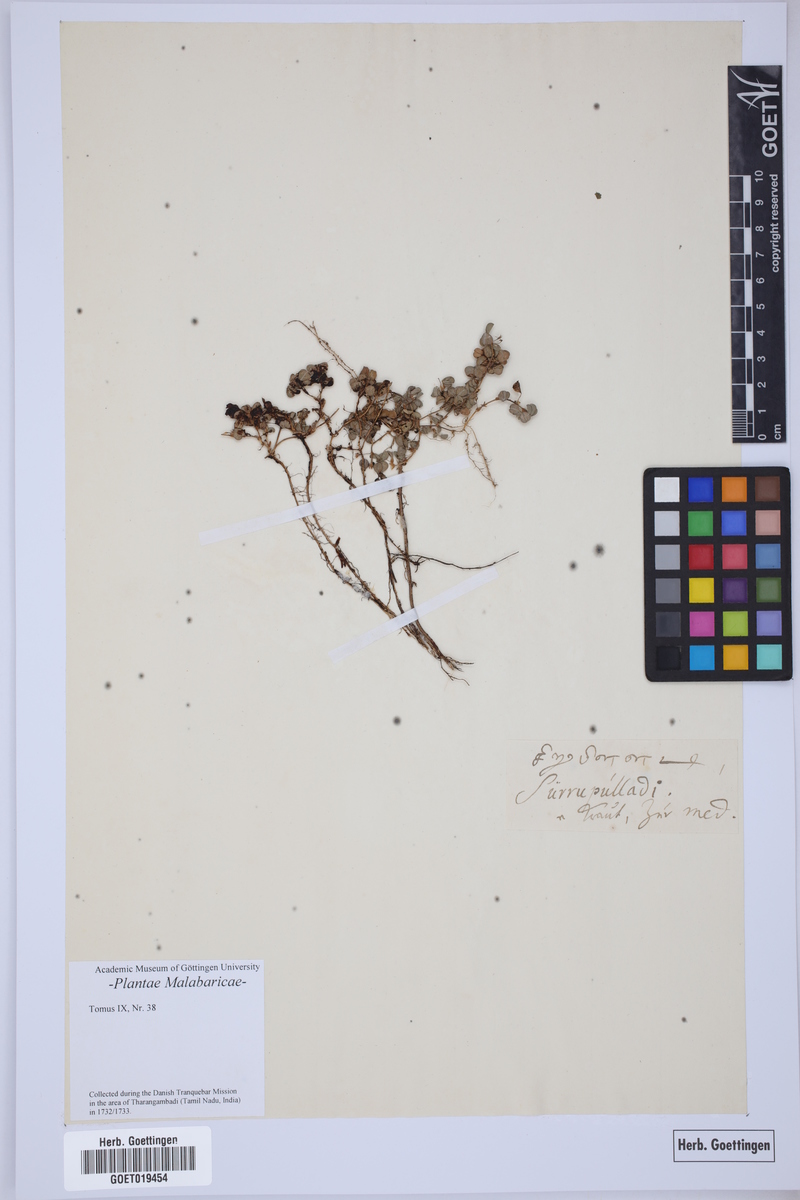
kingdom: Plantae
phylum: Tracheophyta
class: Magnoliopsida
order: Caryophyllales
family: Amaranthaceae
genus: Ouret
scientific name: Ouret lanata
